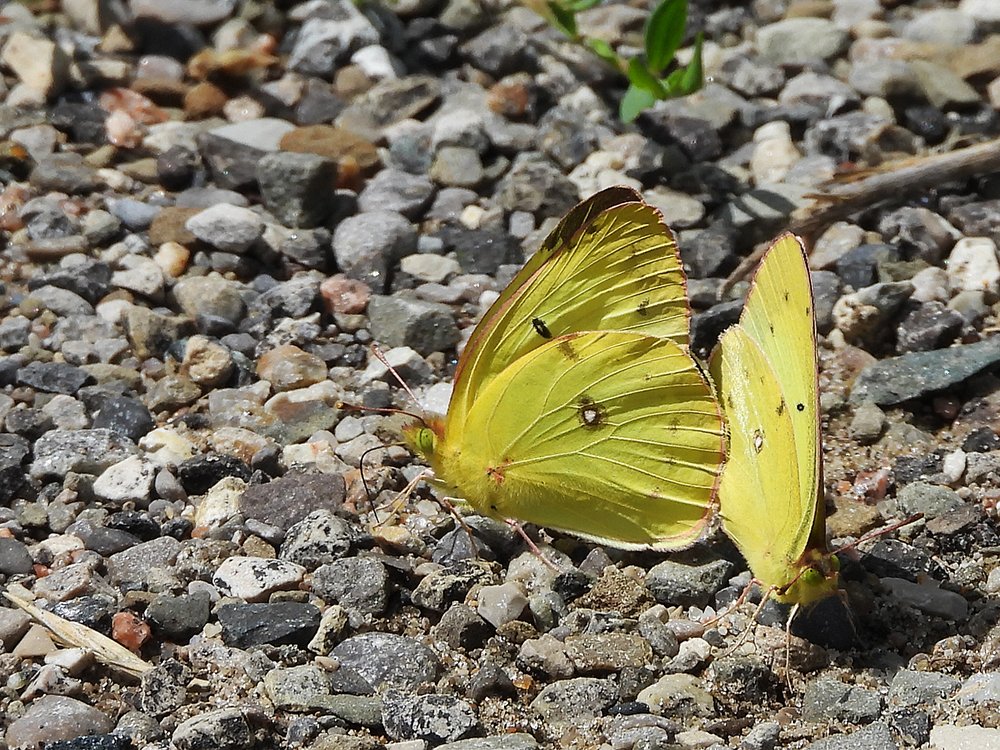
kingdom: Animalia
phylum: Arthropoda
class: Insecta
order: Lepidoptera
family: Pieridae
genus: Colias
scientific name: Colias philodice
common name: Clouded Sulphur
